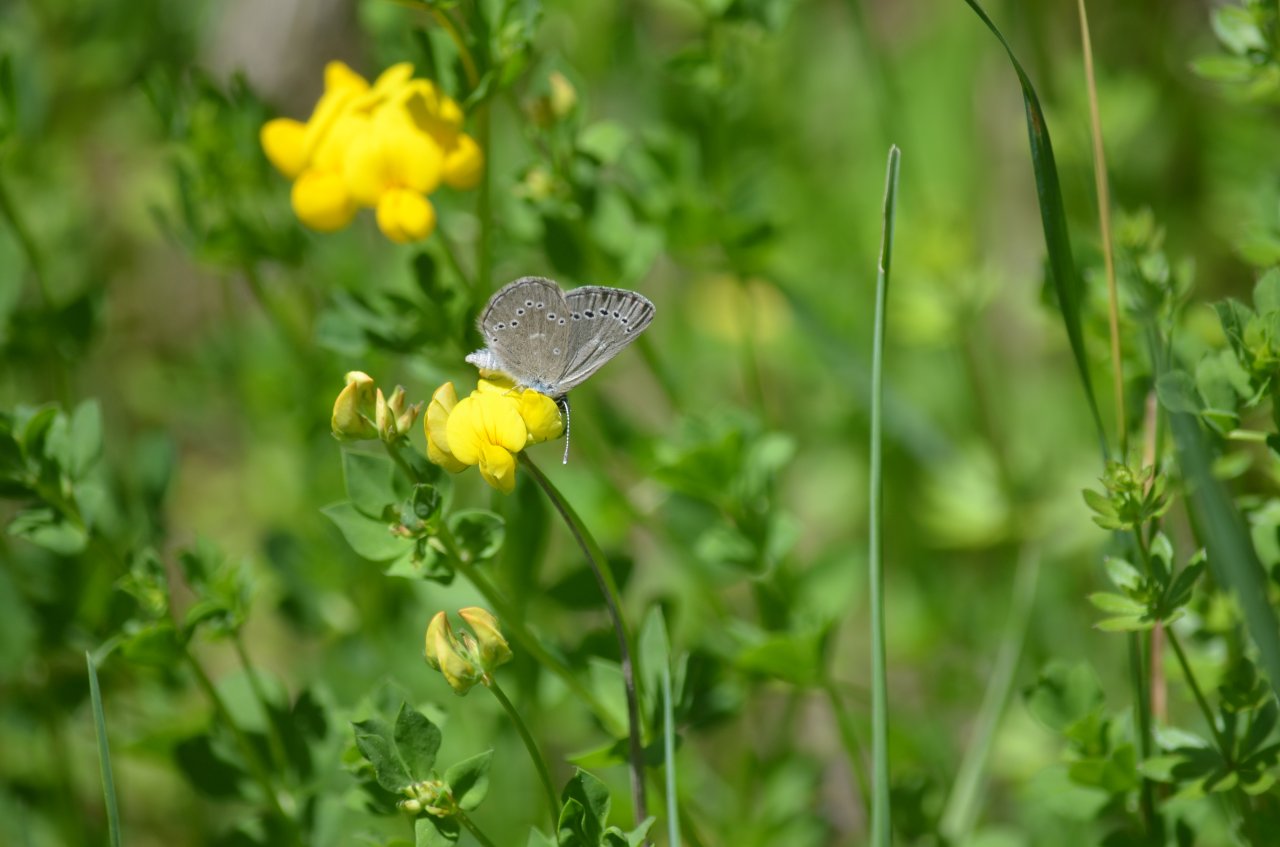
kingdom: Animalia
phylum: Arthropoda
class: Insecta
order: Lepidoptera
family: Lycaenidae
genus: Glaucopsyche
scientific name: Glaucopsyche lygdamus
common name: Silvery Blue
